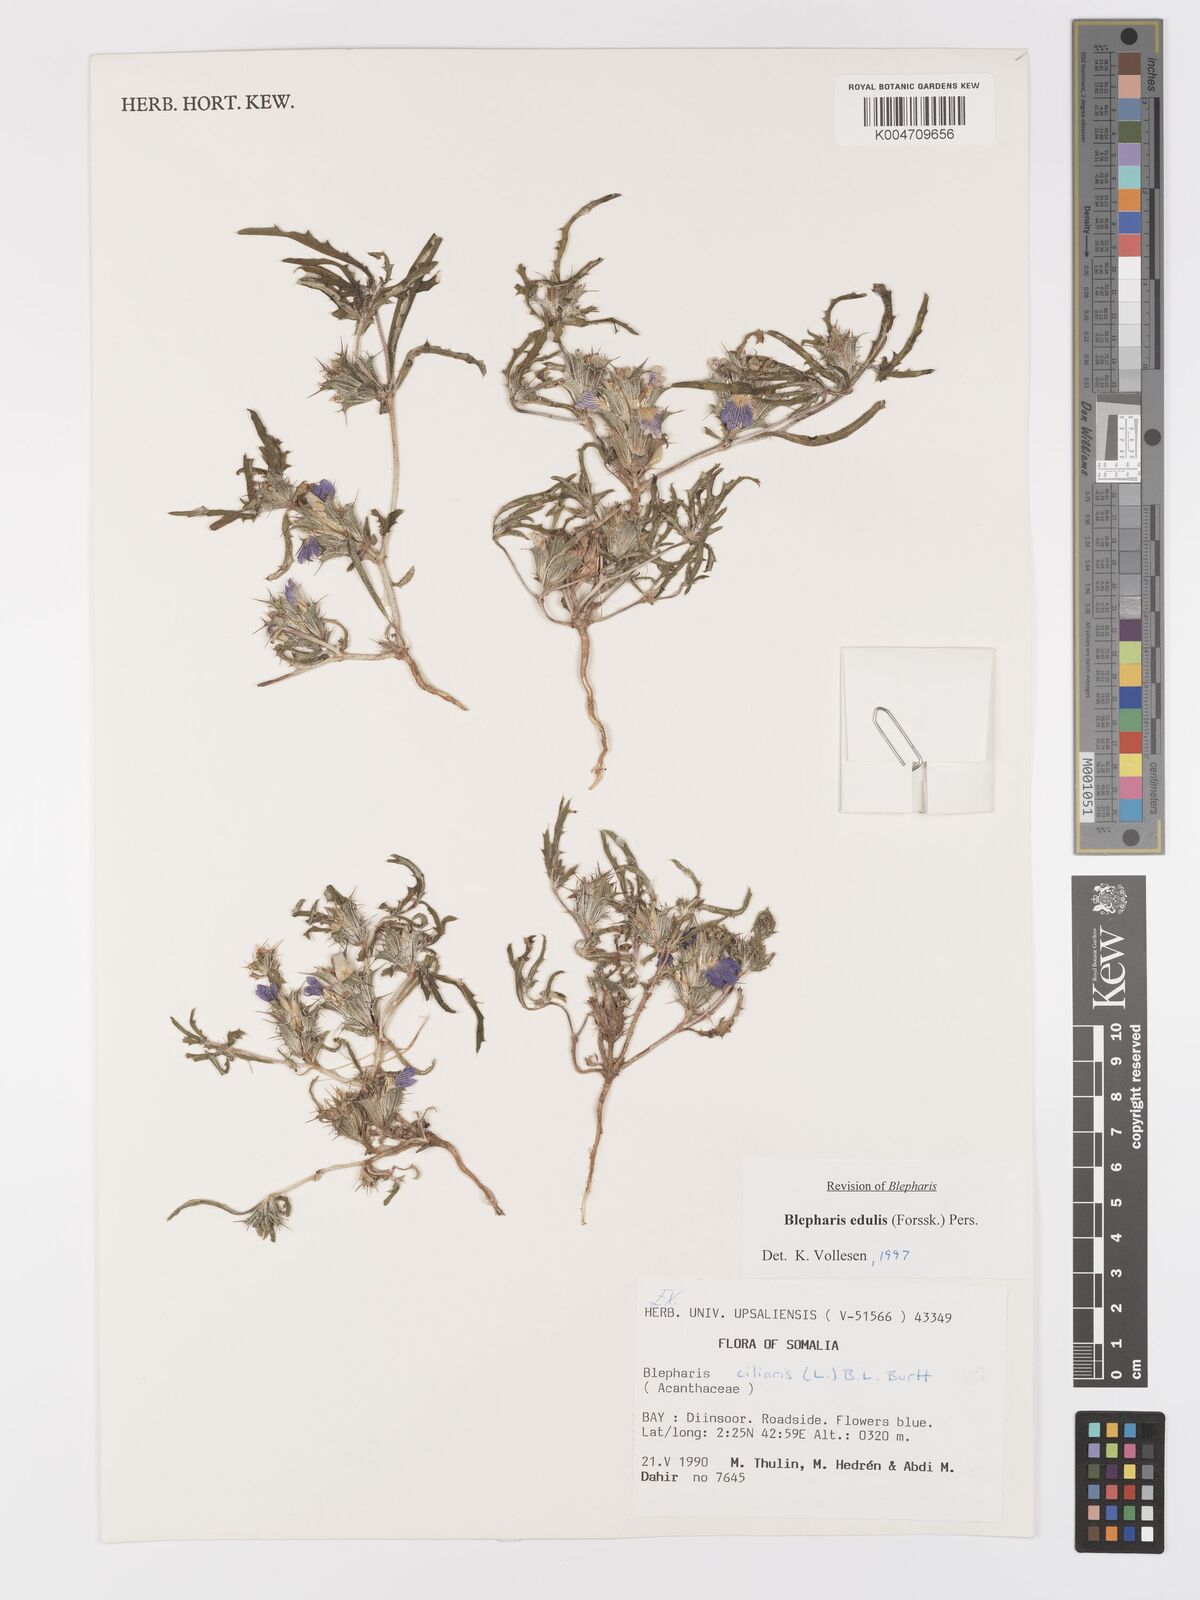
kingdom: Plantae
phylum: Tracheophyta
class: Magnoliopsida
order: Lamiales
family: Acanthaceae
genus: Blepharis
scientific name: Blepharis edulis
